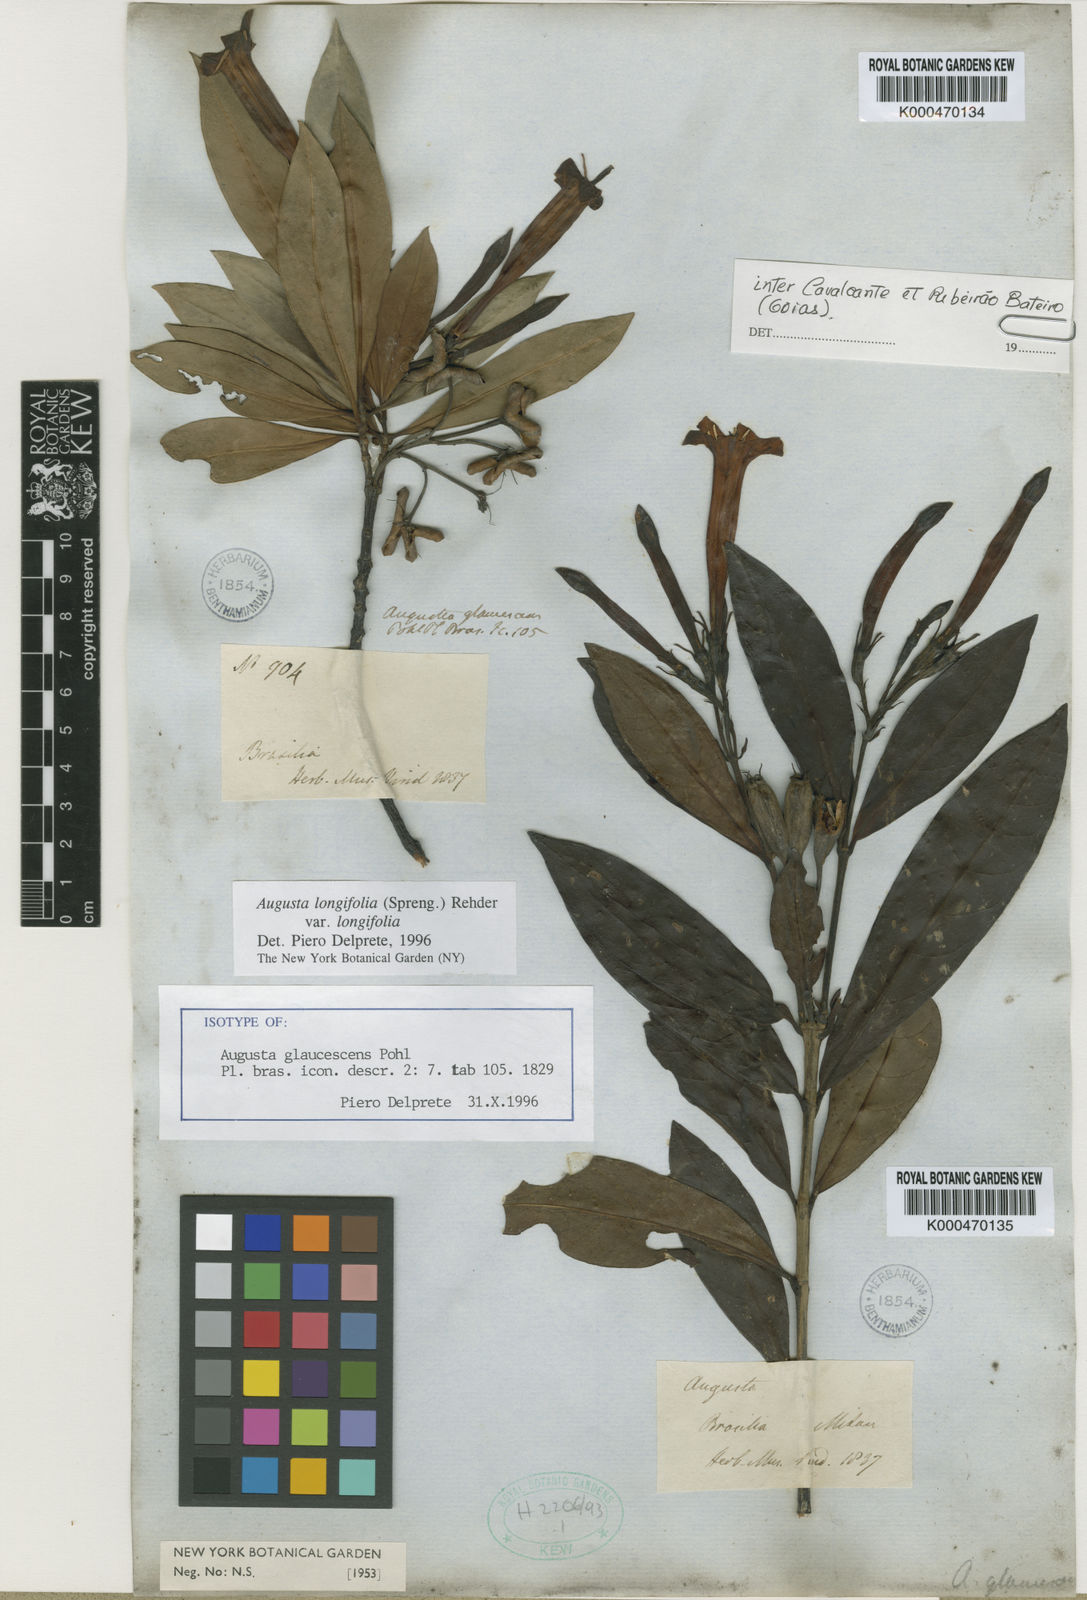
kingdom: Plantae
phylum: Tracheophyta
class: Magnoliopsida
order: Gentianales
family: Rubiaceae
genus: Augusta
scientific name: Augusta longifolia
